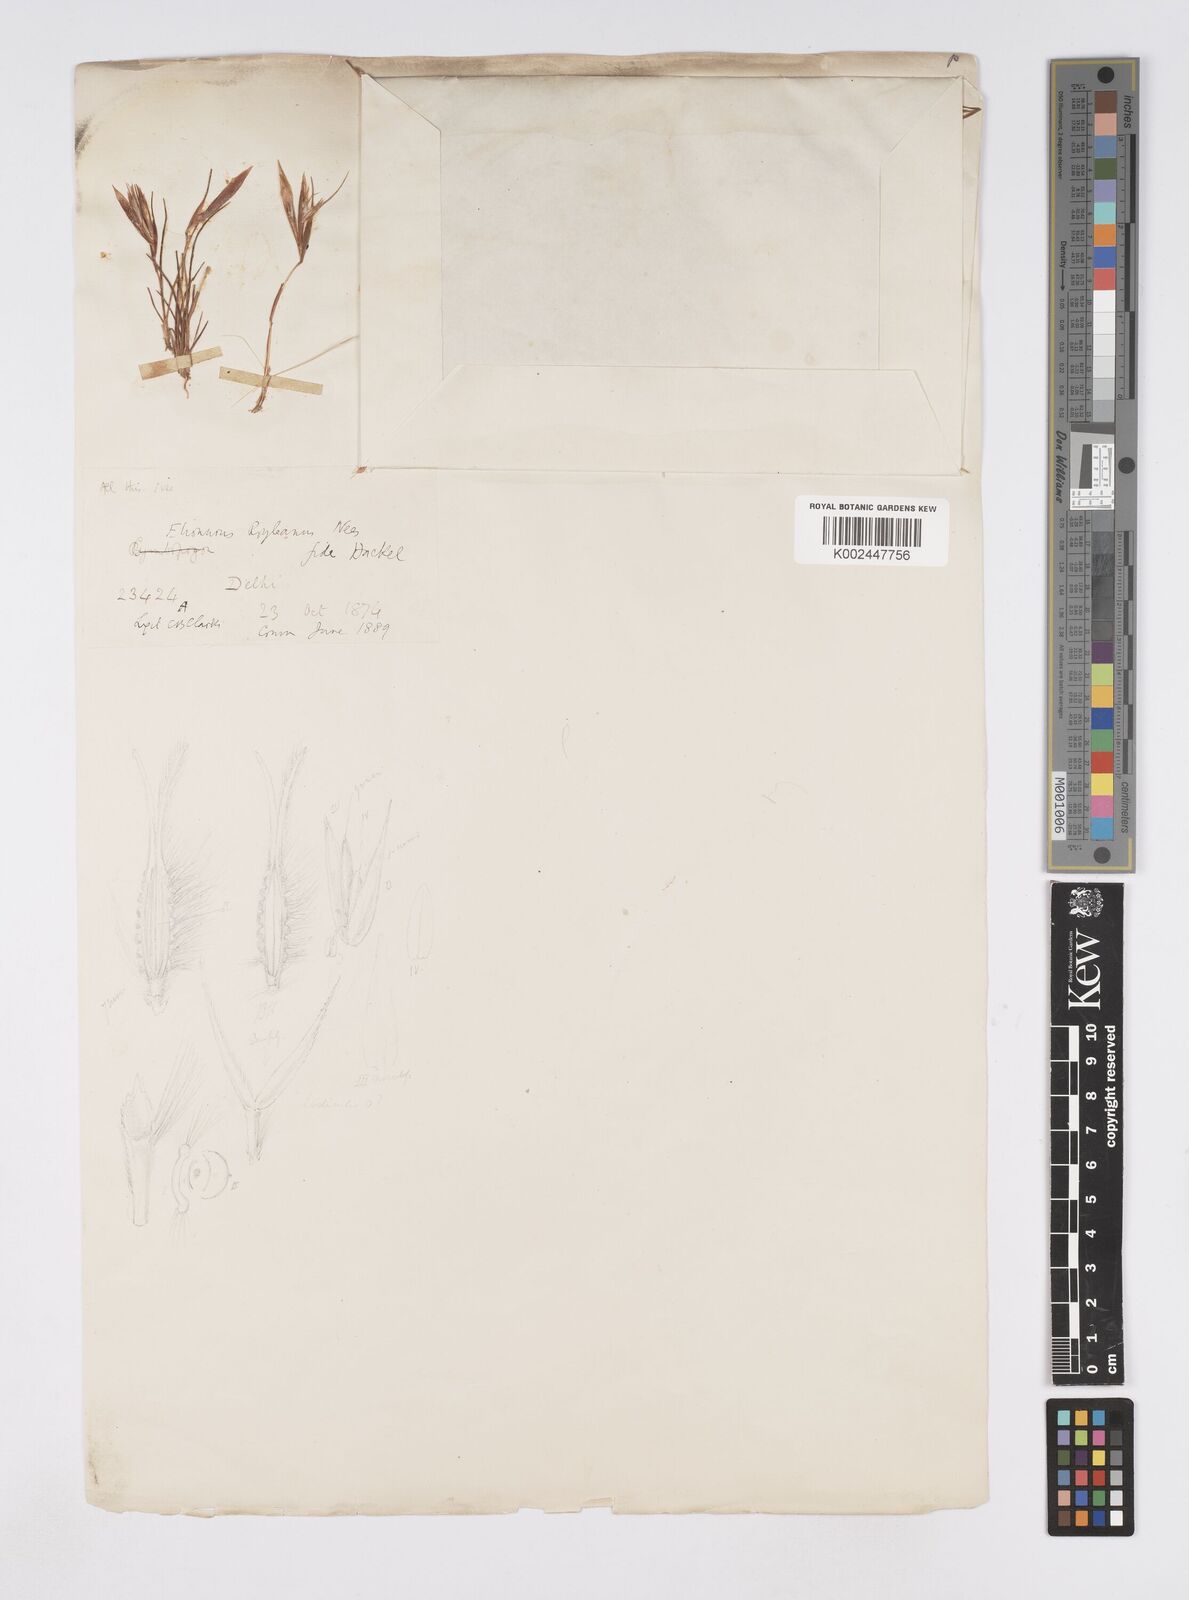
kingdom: Plantae
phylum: Tracheophyta
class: Liliopsida
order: Poales
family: Poaceae
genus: Elionurus
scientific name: Elionurus royleanus
